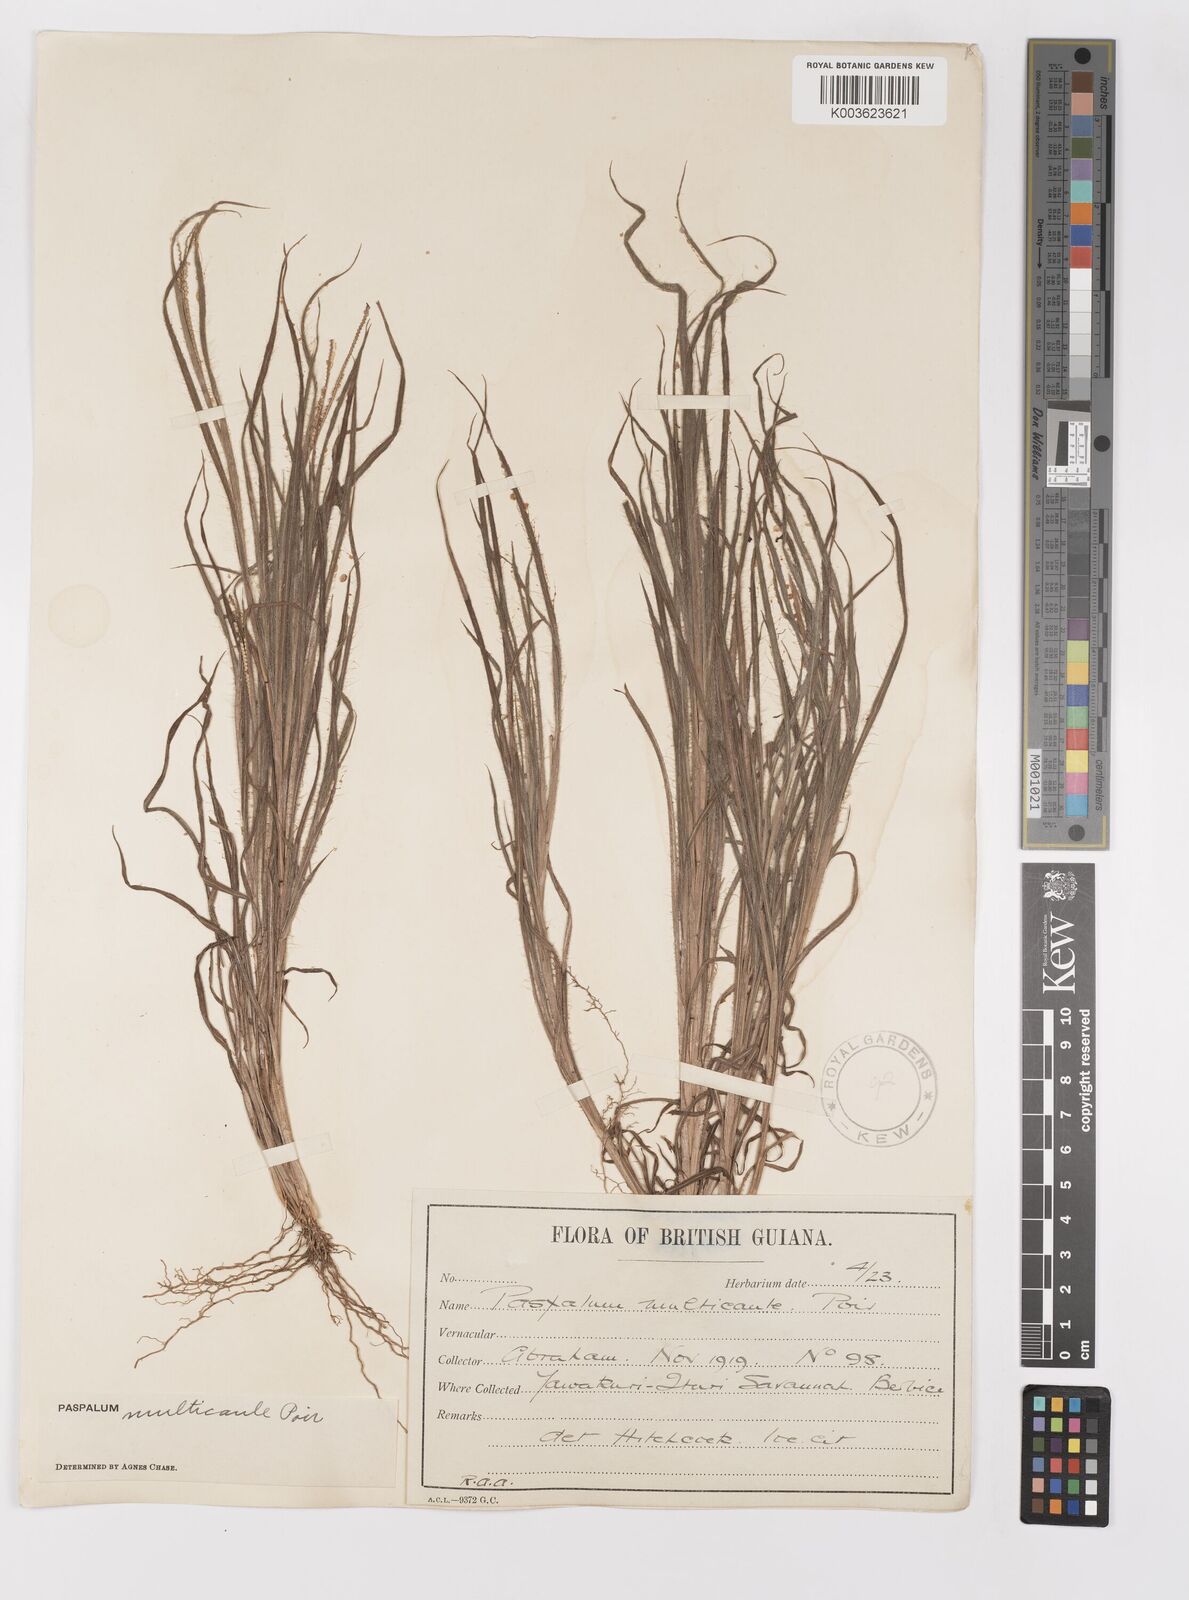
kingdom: Plantae
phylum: Tracheophyta
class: Liliopsida
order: Poales
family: Poaceae
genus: Paspalum
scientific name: Paspalum multicaule
